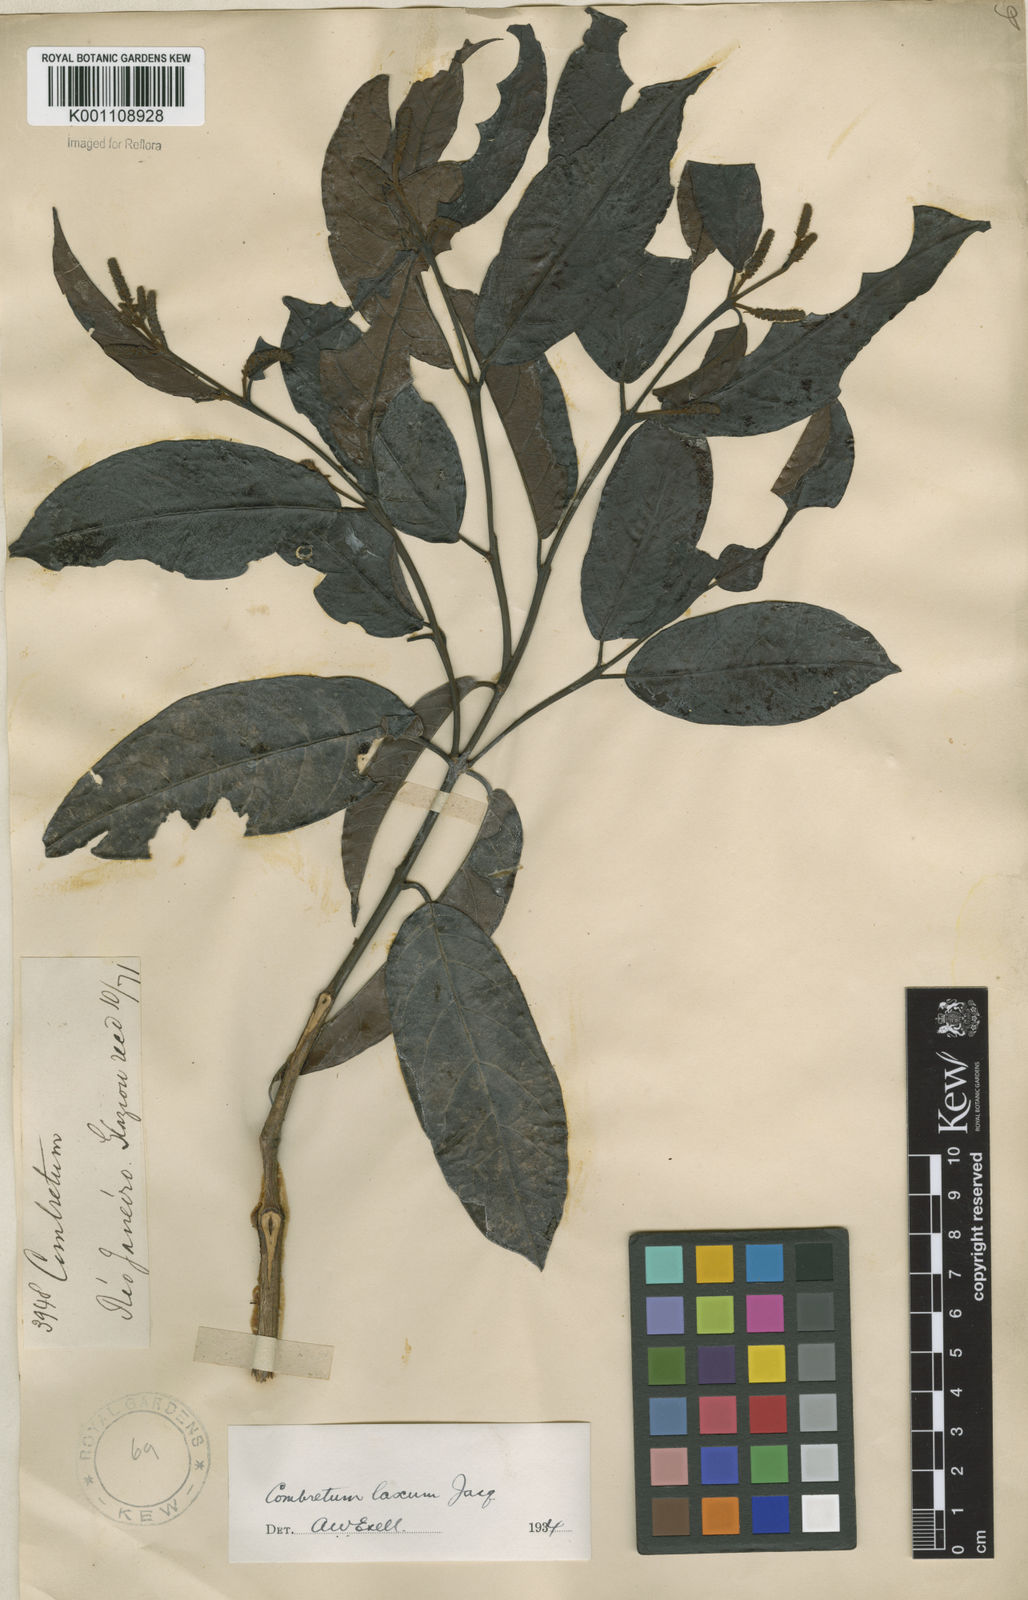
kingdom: Plantae
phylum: Tracheophyta
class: Magnoliopsida
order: Myrtales
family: Combretaceae
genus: Combretum
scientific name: Combretum laxum
